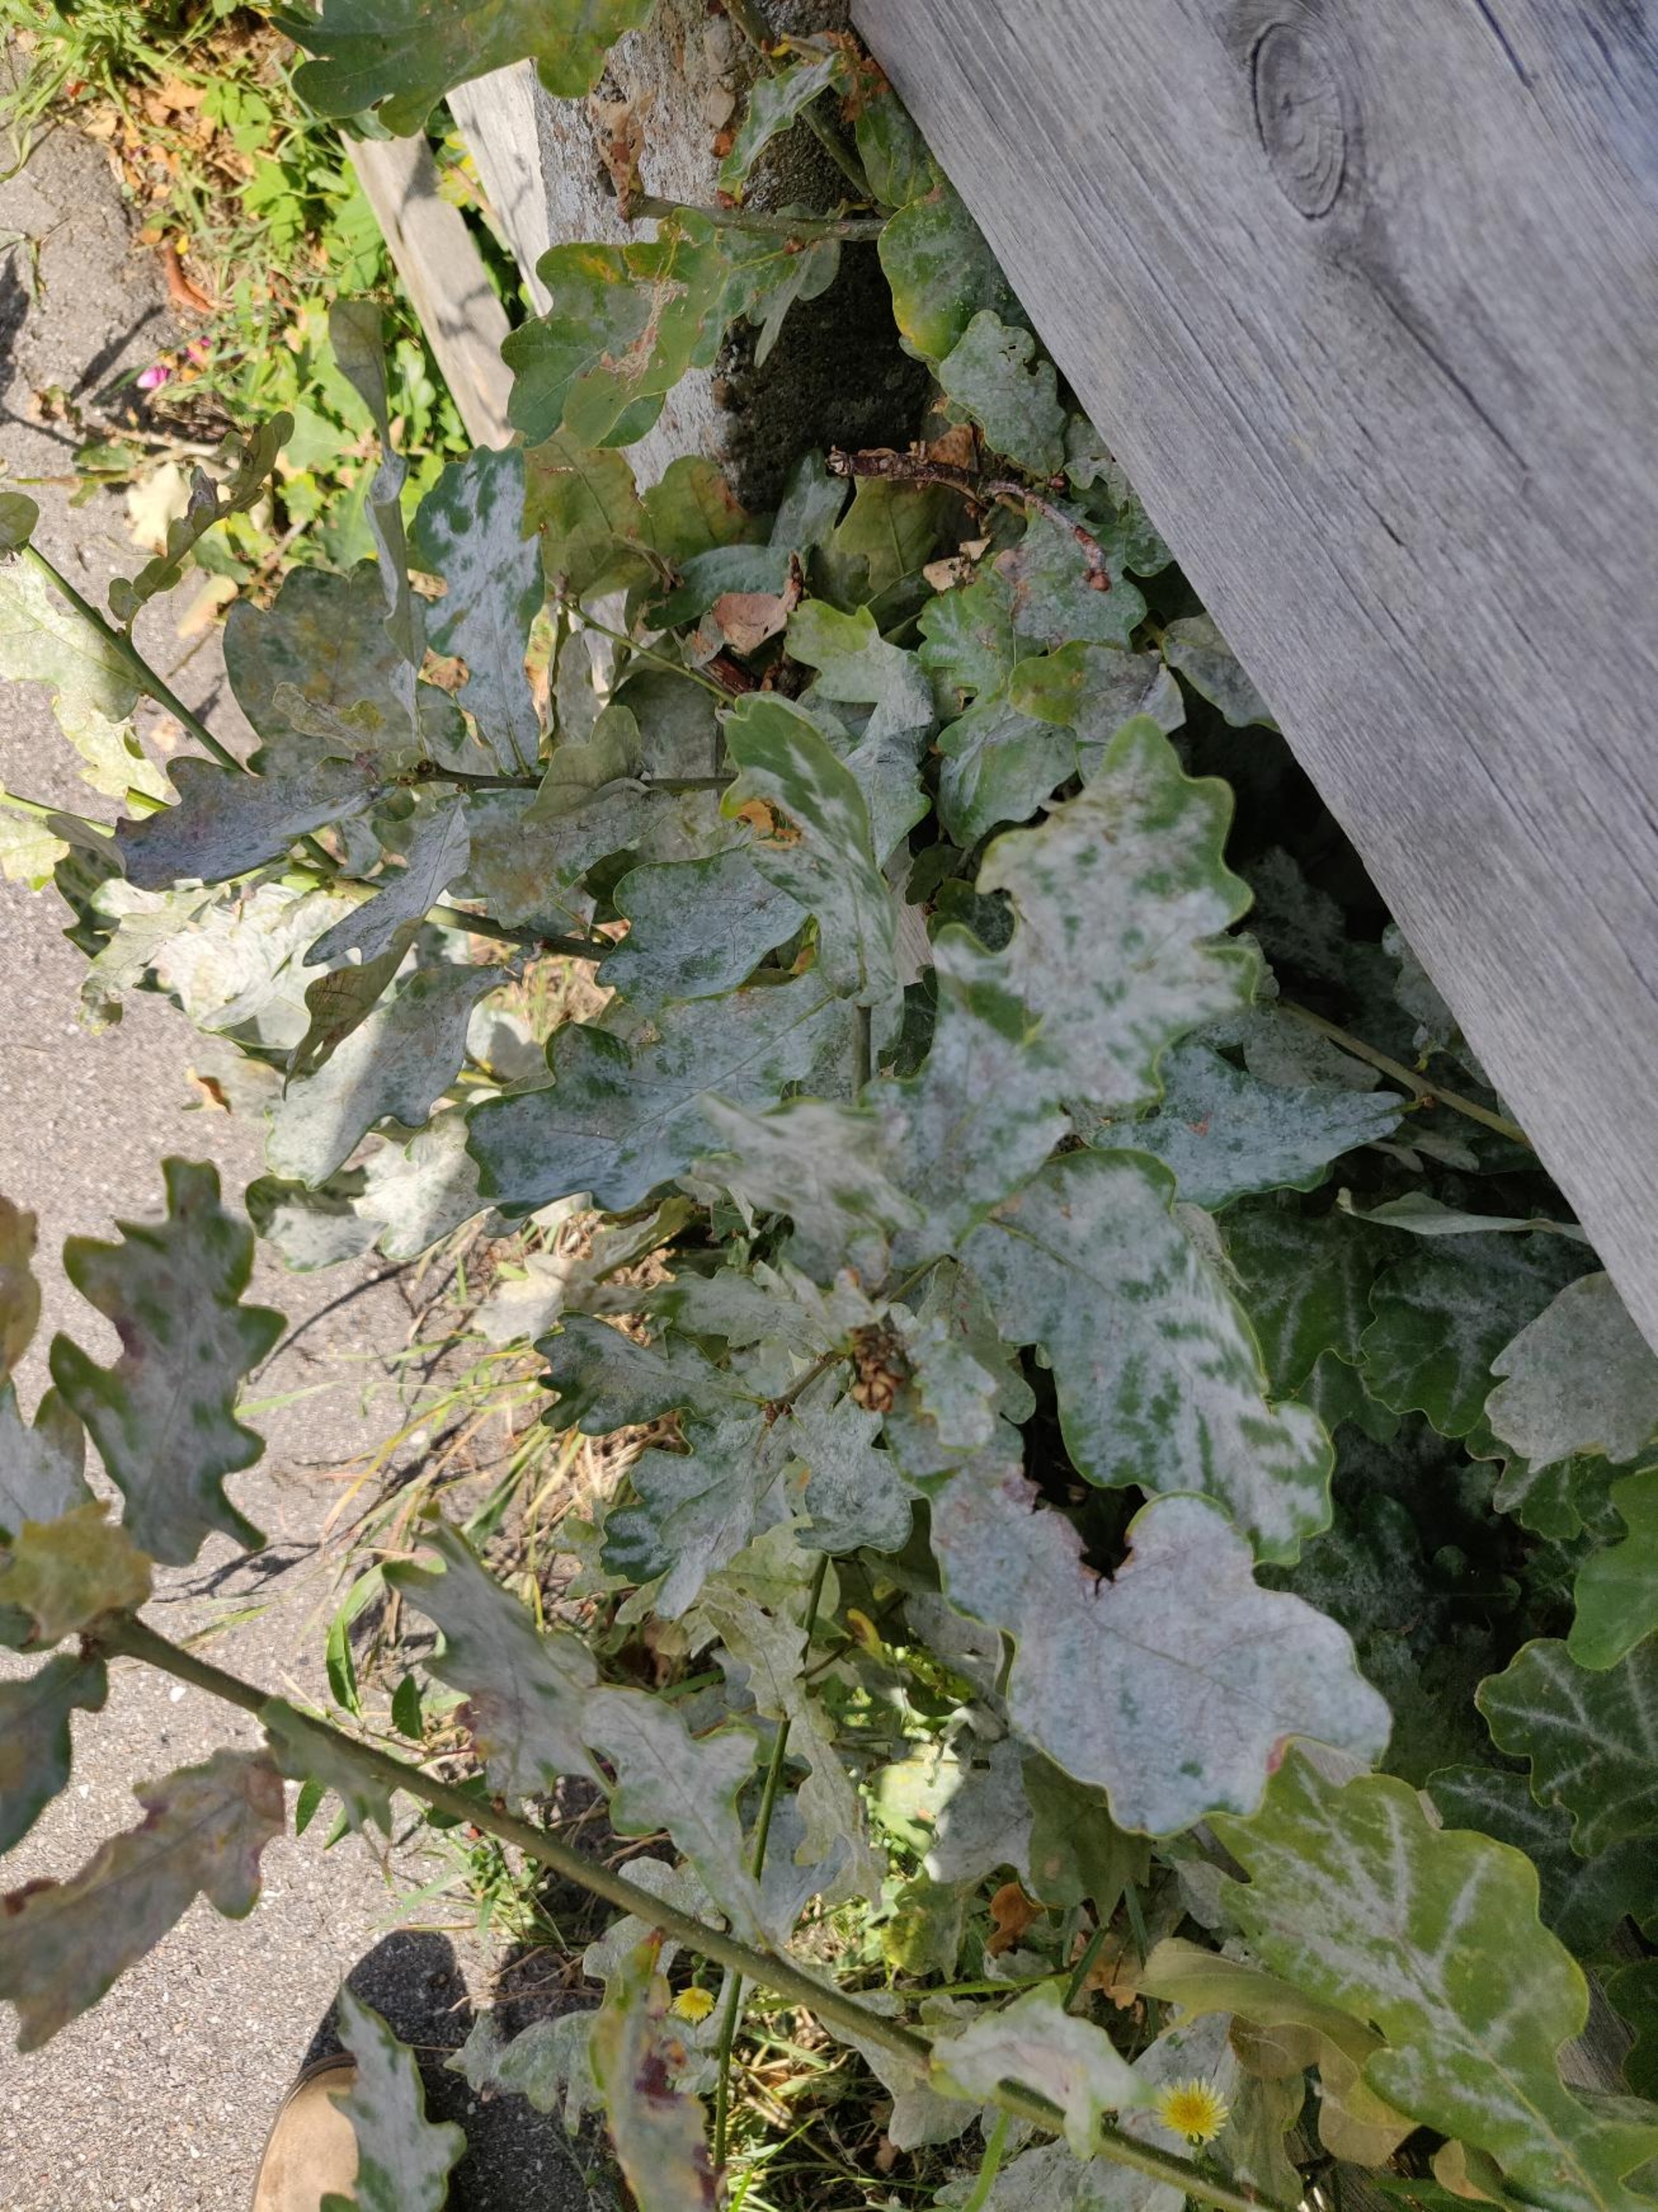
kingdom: Fungi
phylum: Ascomycota
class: Leotiomycetes
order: Helotiales
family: Erysiphaceae
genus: Erysiphe
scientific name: Erysiphe alphitoides
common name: Ege-meldug
